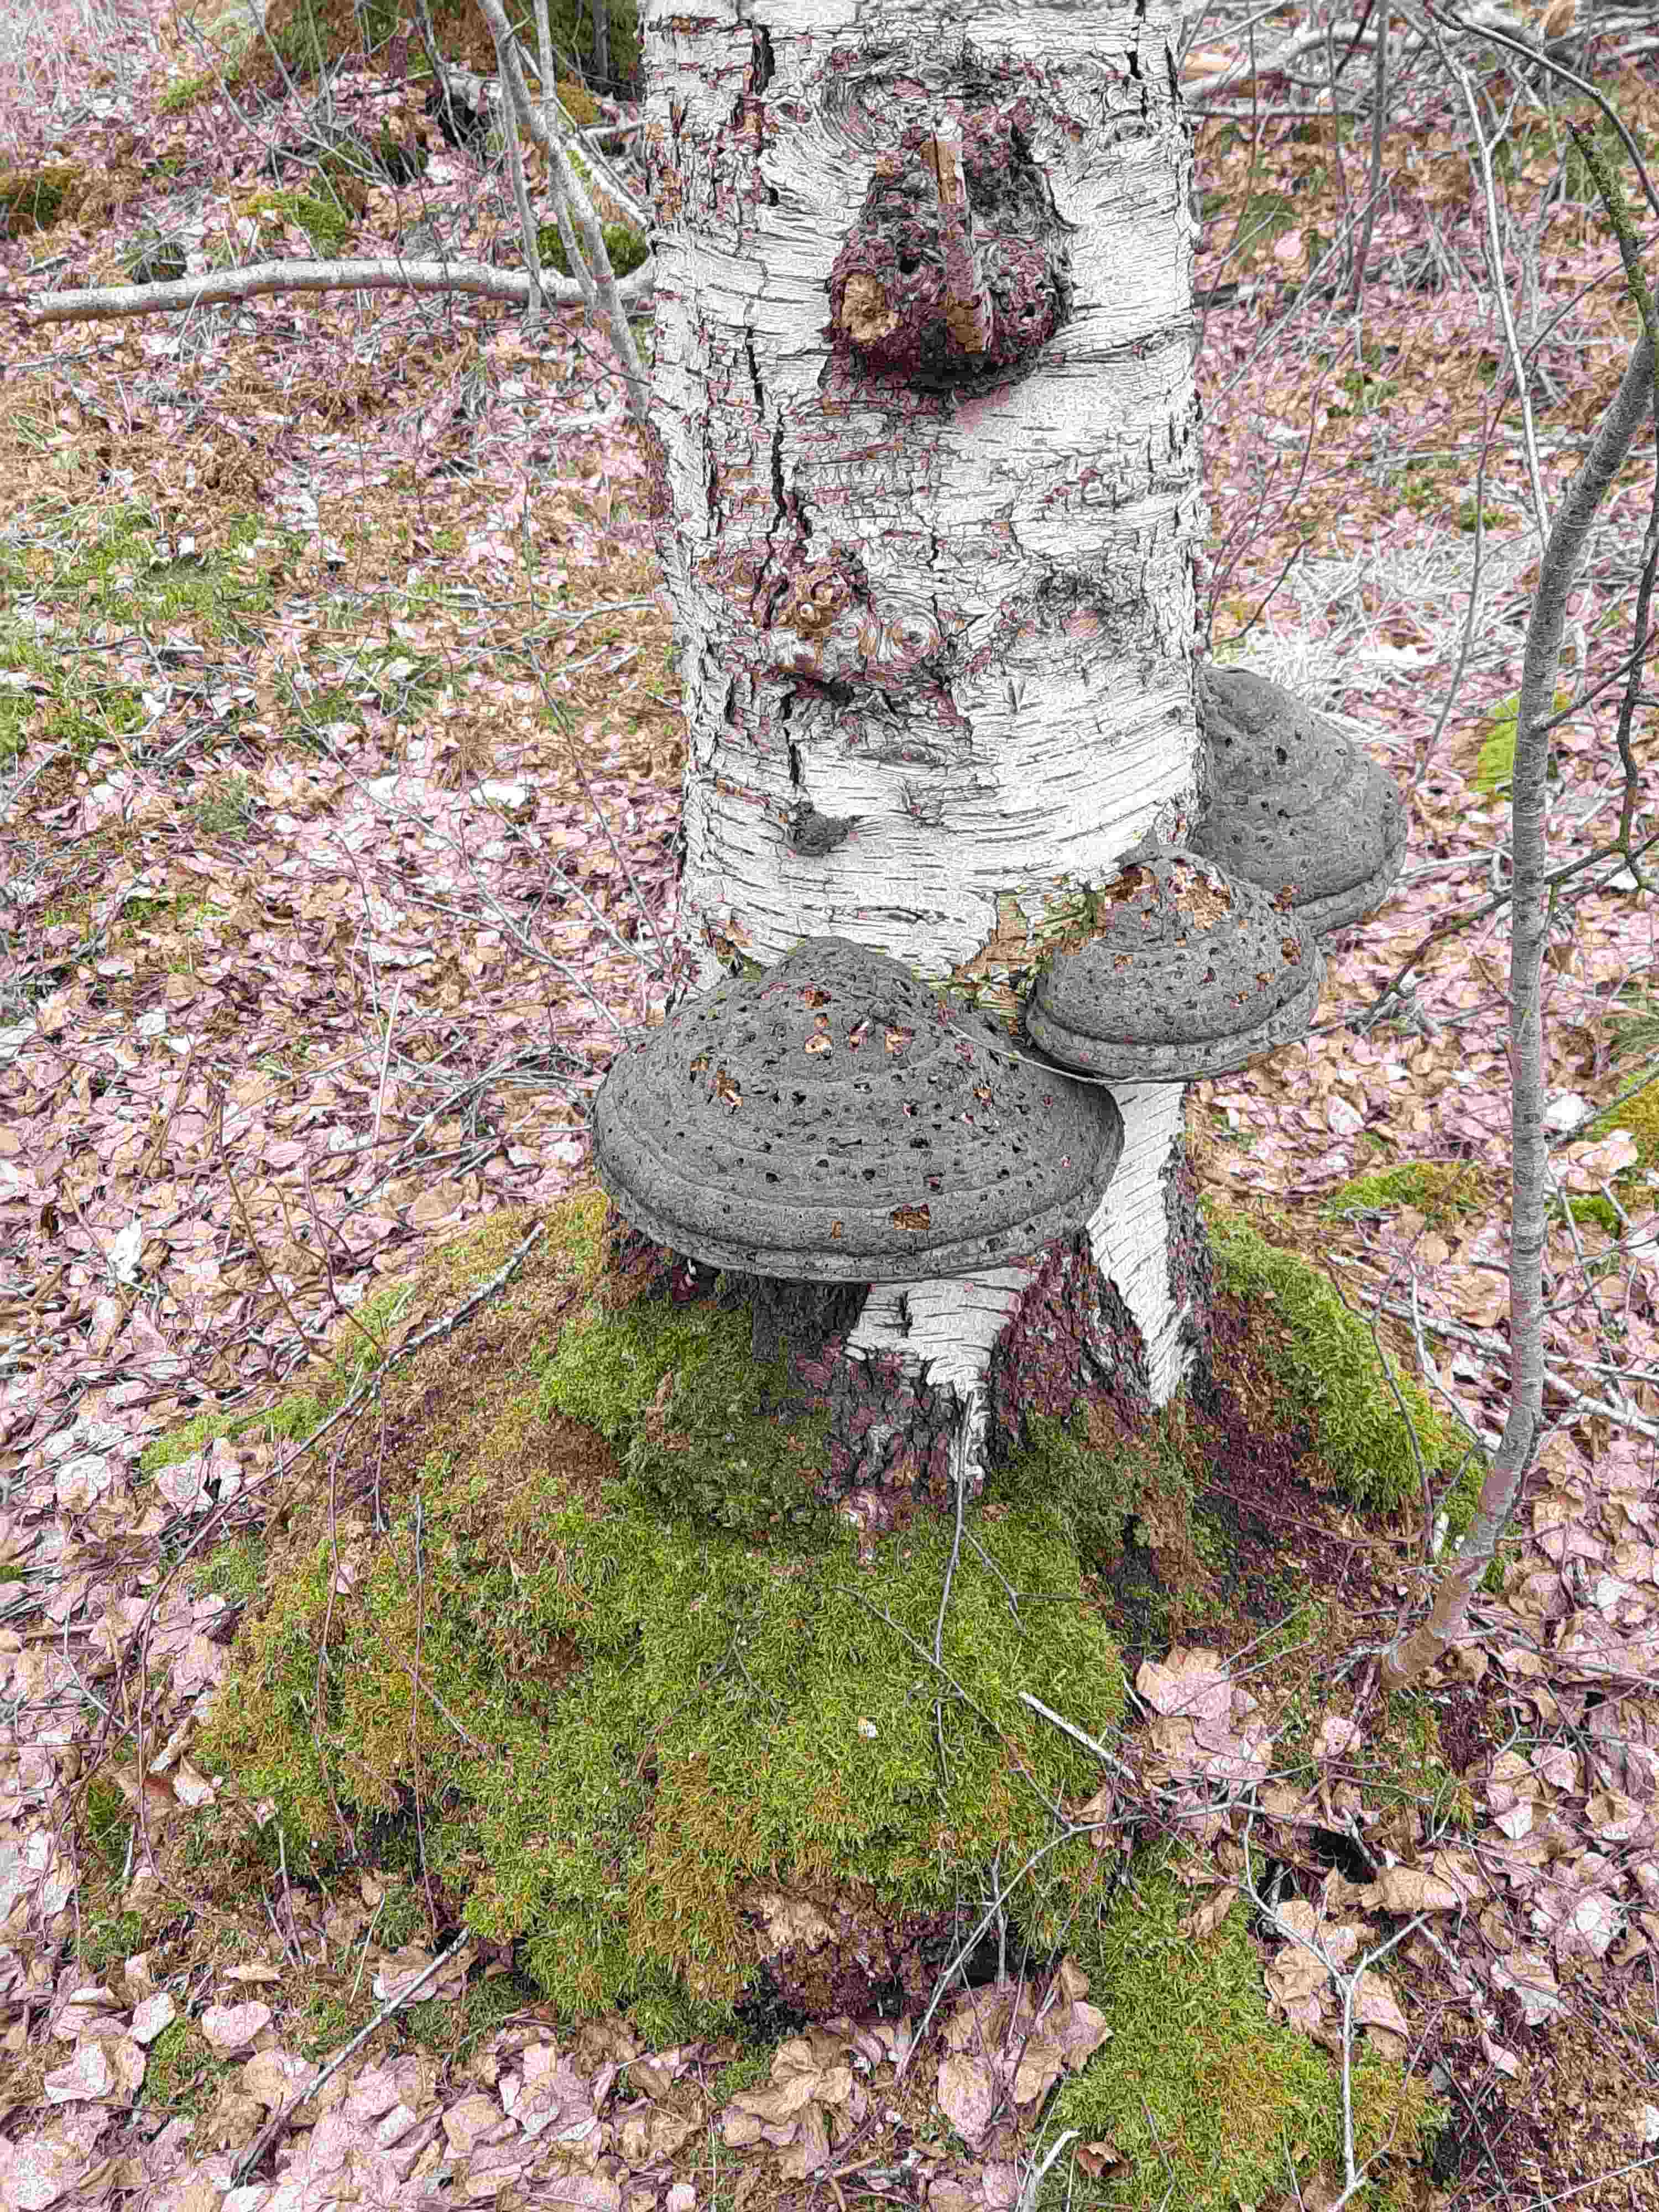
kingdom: Fungi
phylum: Basidiomycota
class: Agaricomycetes
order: Polyporales
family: Polyporaceae
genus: Fomes
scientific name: Fomes fomentarius
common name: tøndersvamp
